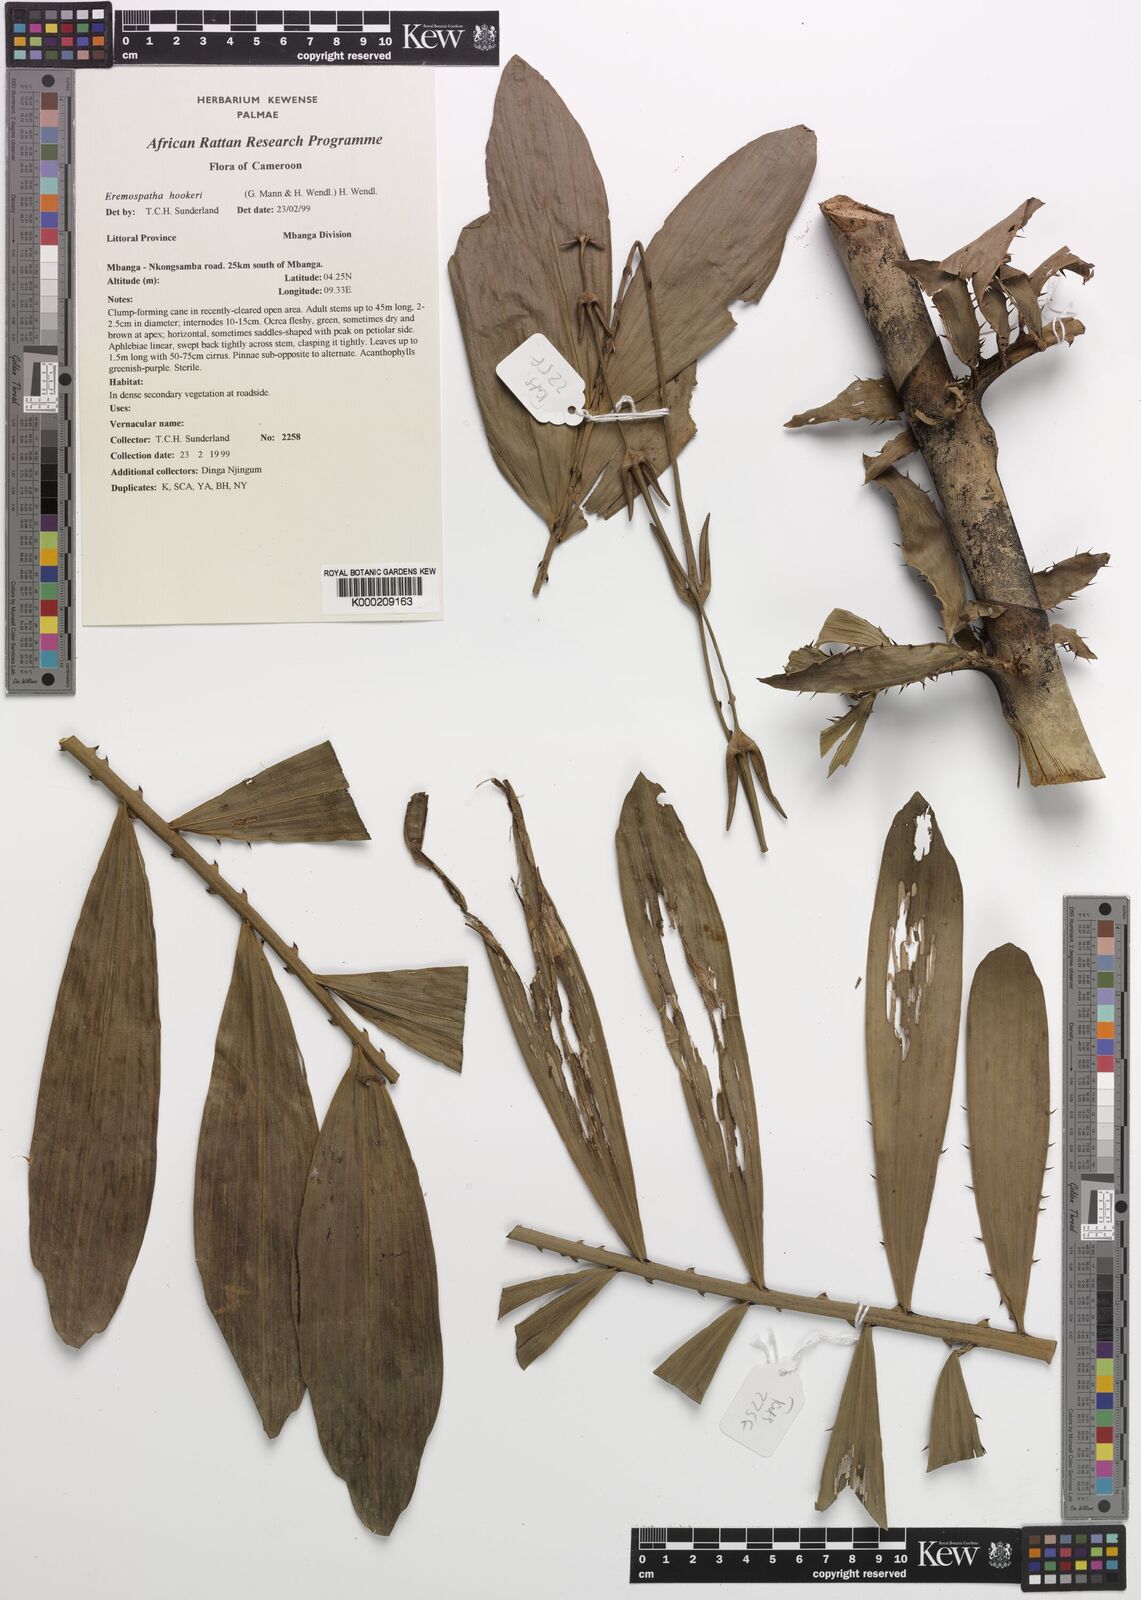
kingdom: Plantae
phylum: Tracheophyta
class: Liliopsida
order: Arecales
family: Arecaceae
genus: Eremospatha
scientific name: Eremospatha hookeri
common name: Rattan
